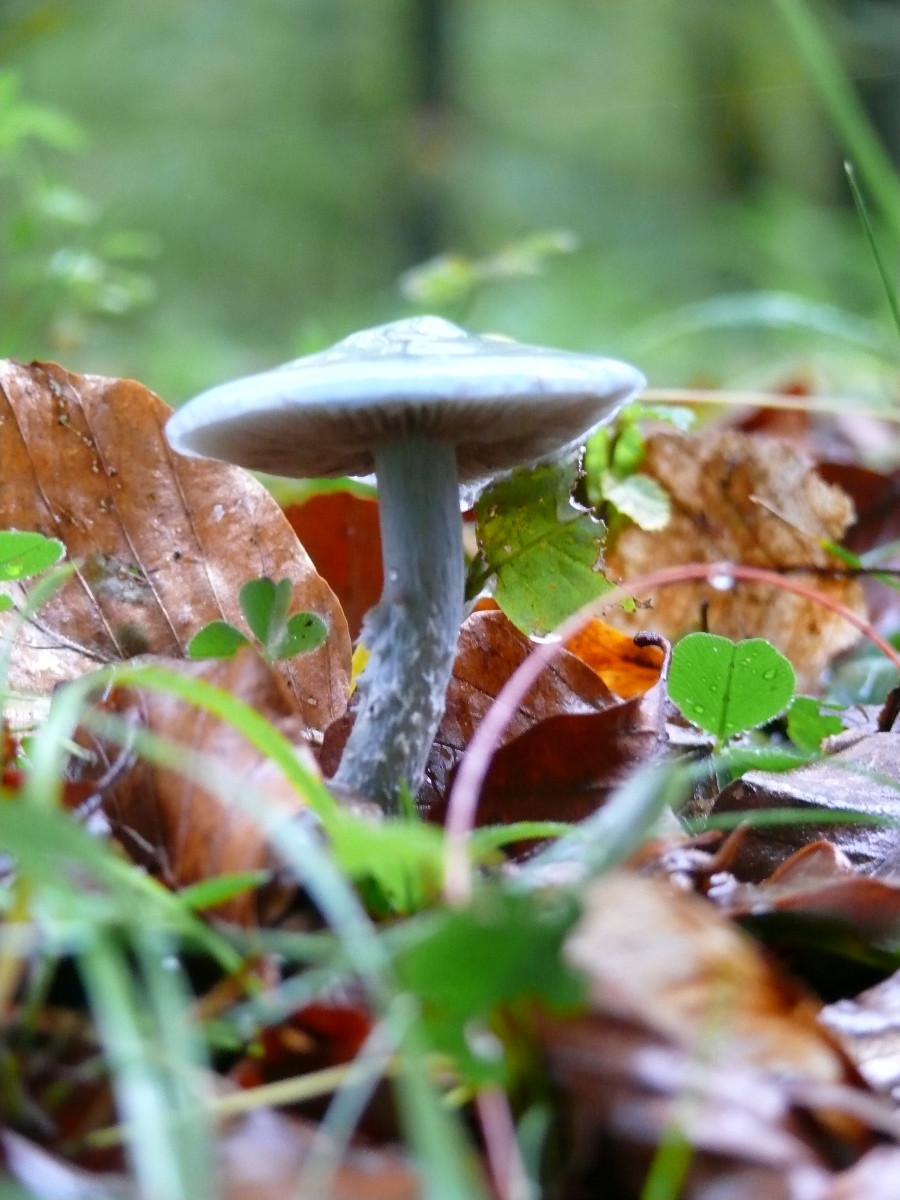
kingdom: Fungi
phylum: Basidiomycota
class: Agaricomycetes
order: Agaricales
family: Strophariaceae
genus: Stropharia
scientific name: Stropharia cyanea
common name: blågrøn bredblad
